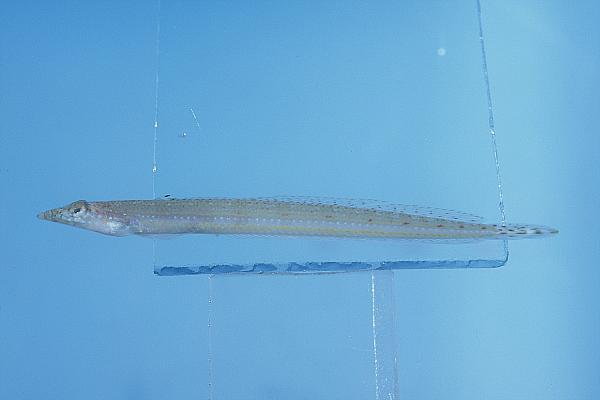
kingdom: Animalia
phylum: Chordata
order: Perciformes
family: Trichonotidae
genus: Trichonotus
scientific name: Trichonotus marleyi
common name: Sand diver
